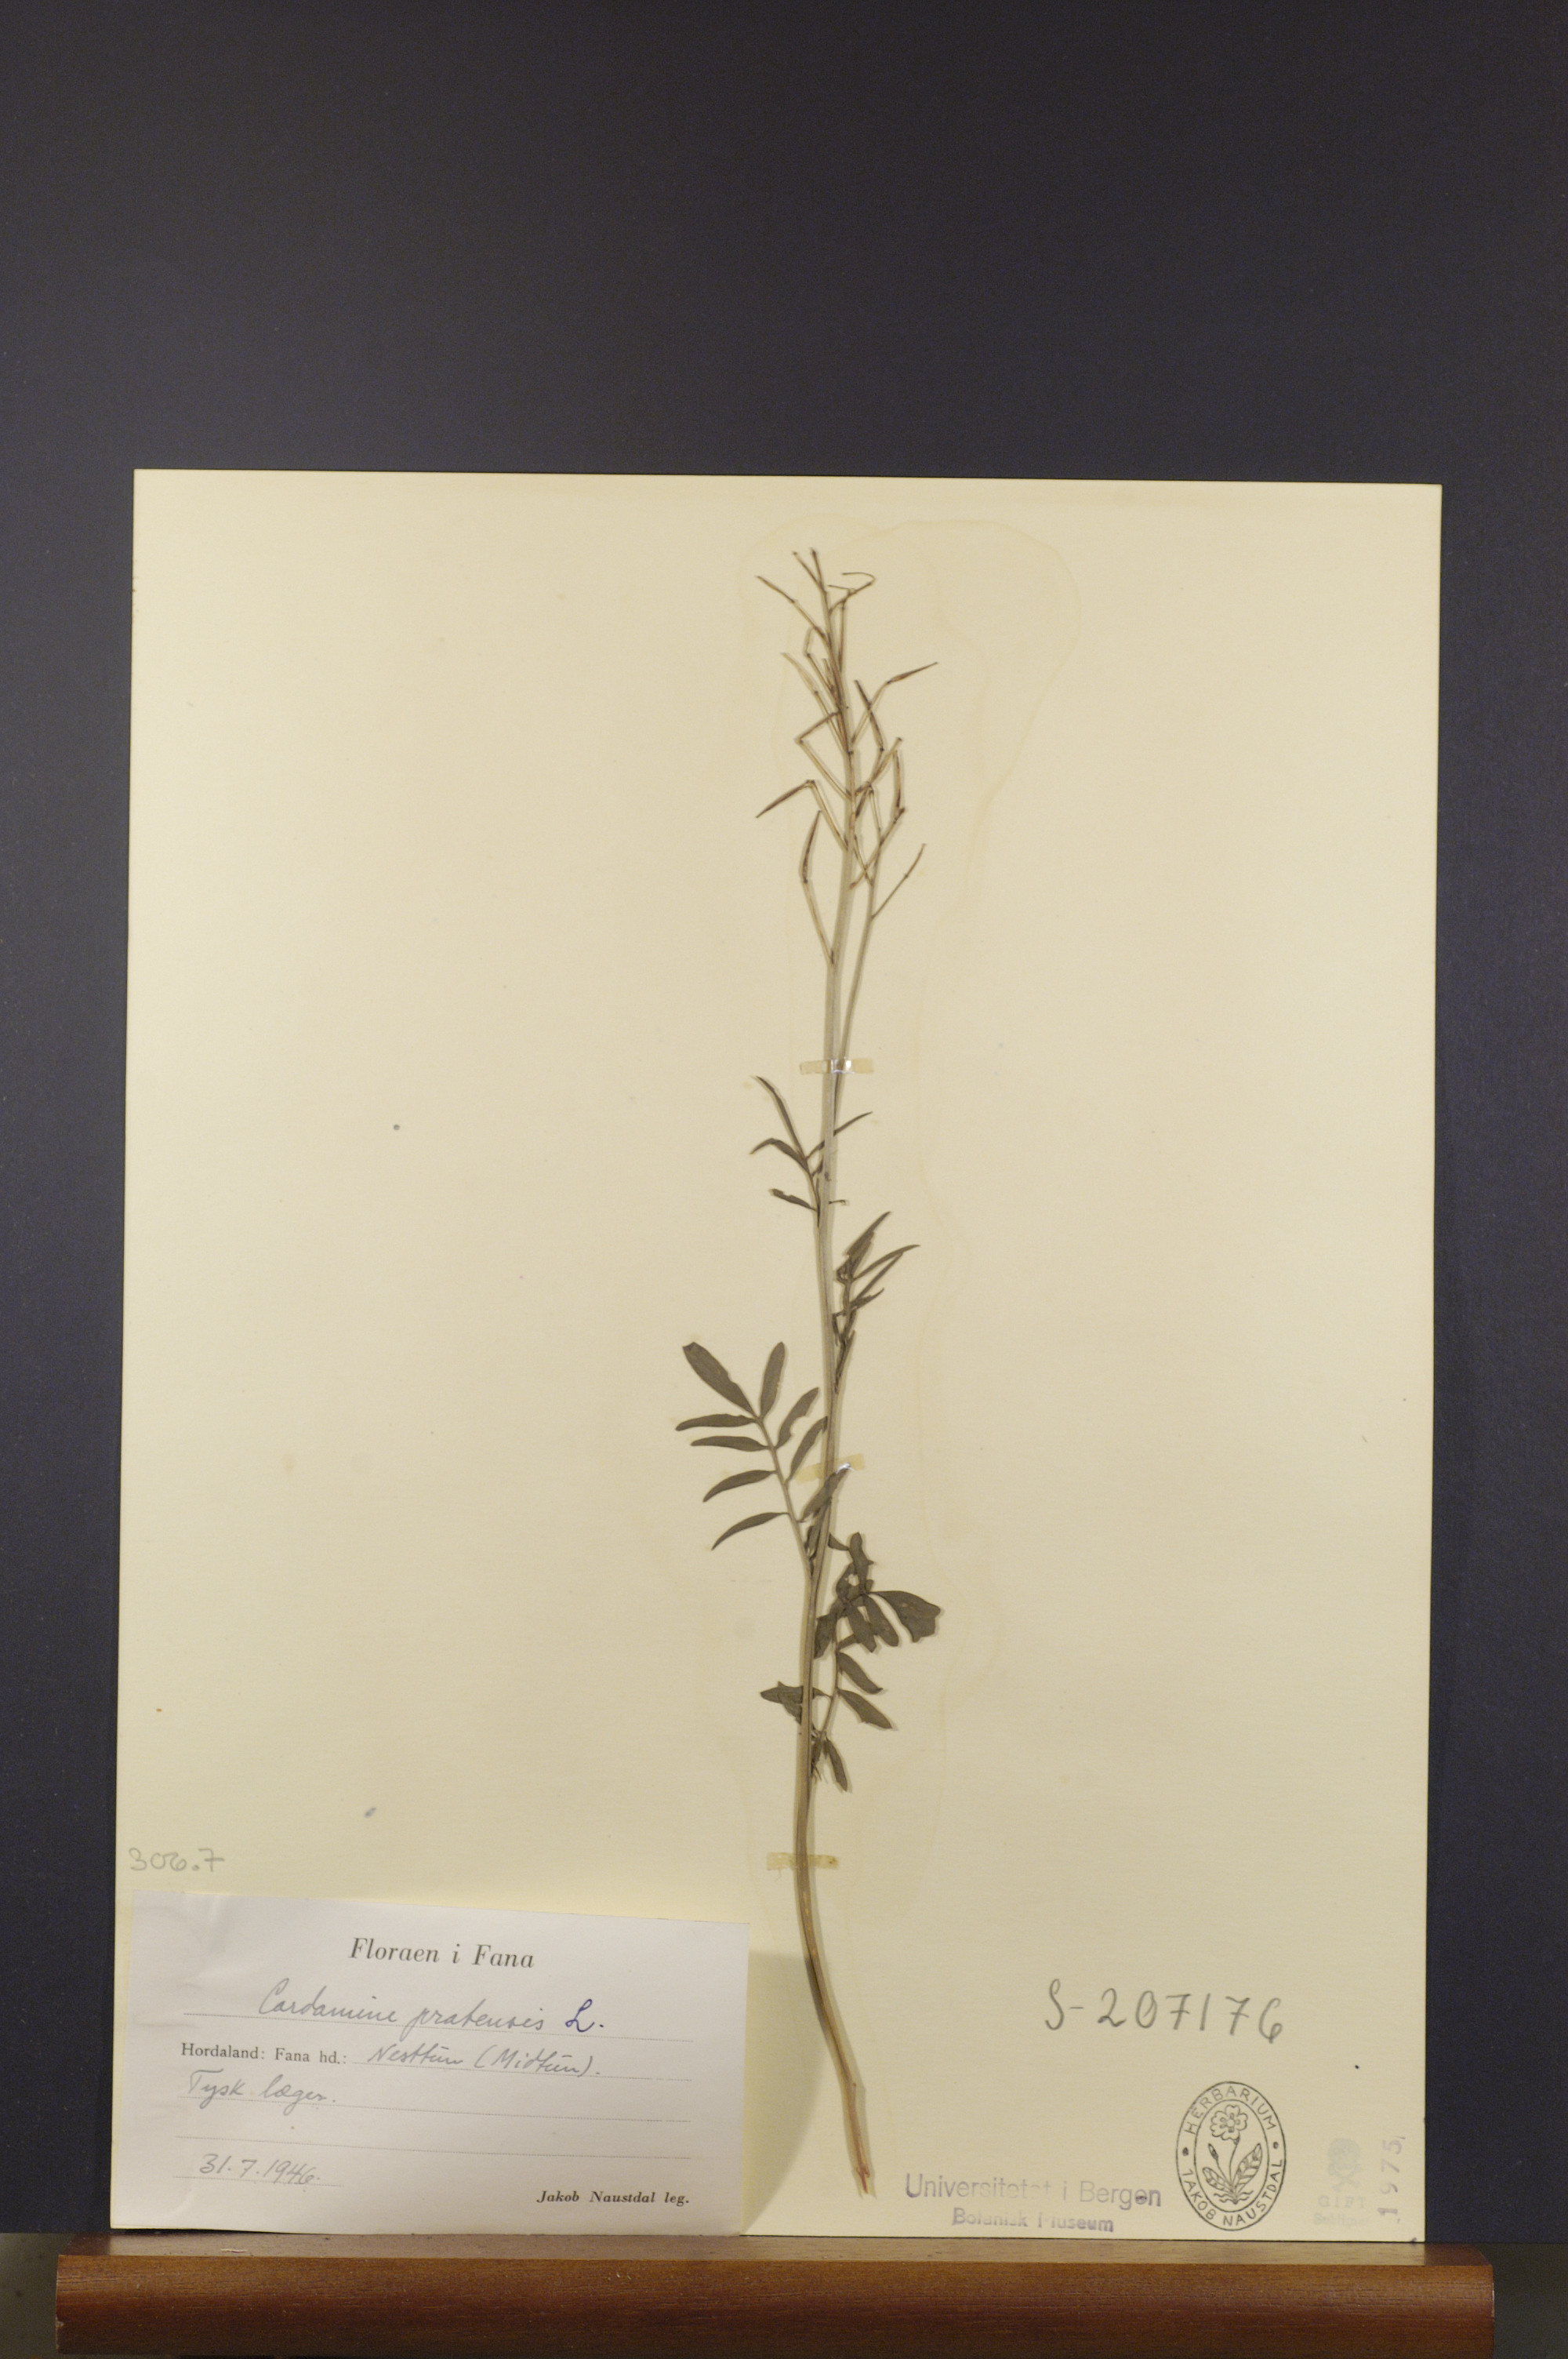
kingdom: Plantae
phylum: Tracheophyta
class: Magnoliopsida
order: Brassicales
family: Brassicaceae
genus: Cardamine
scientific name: Cardamine pratensis
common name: Cuckoo flower
